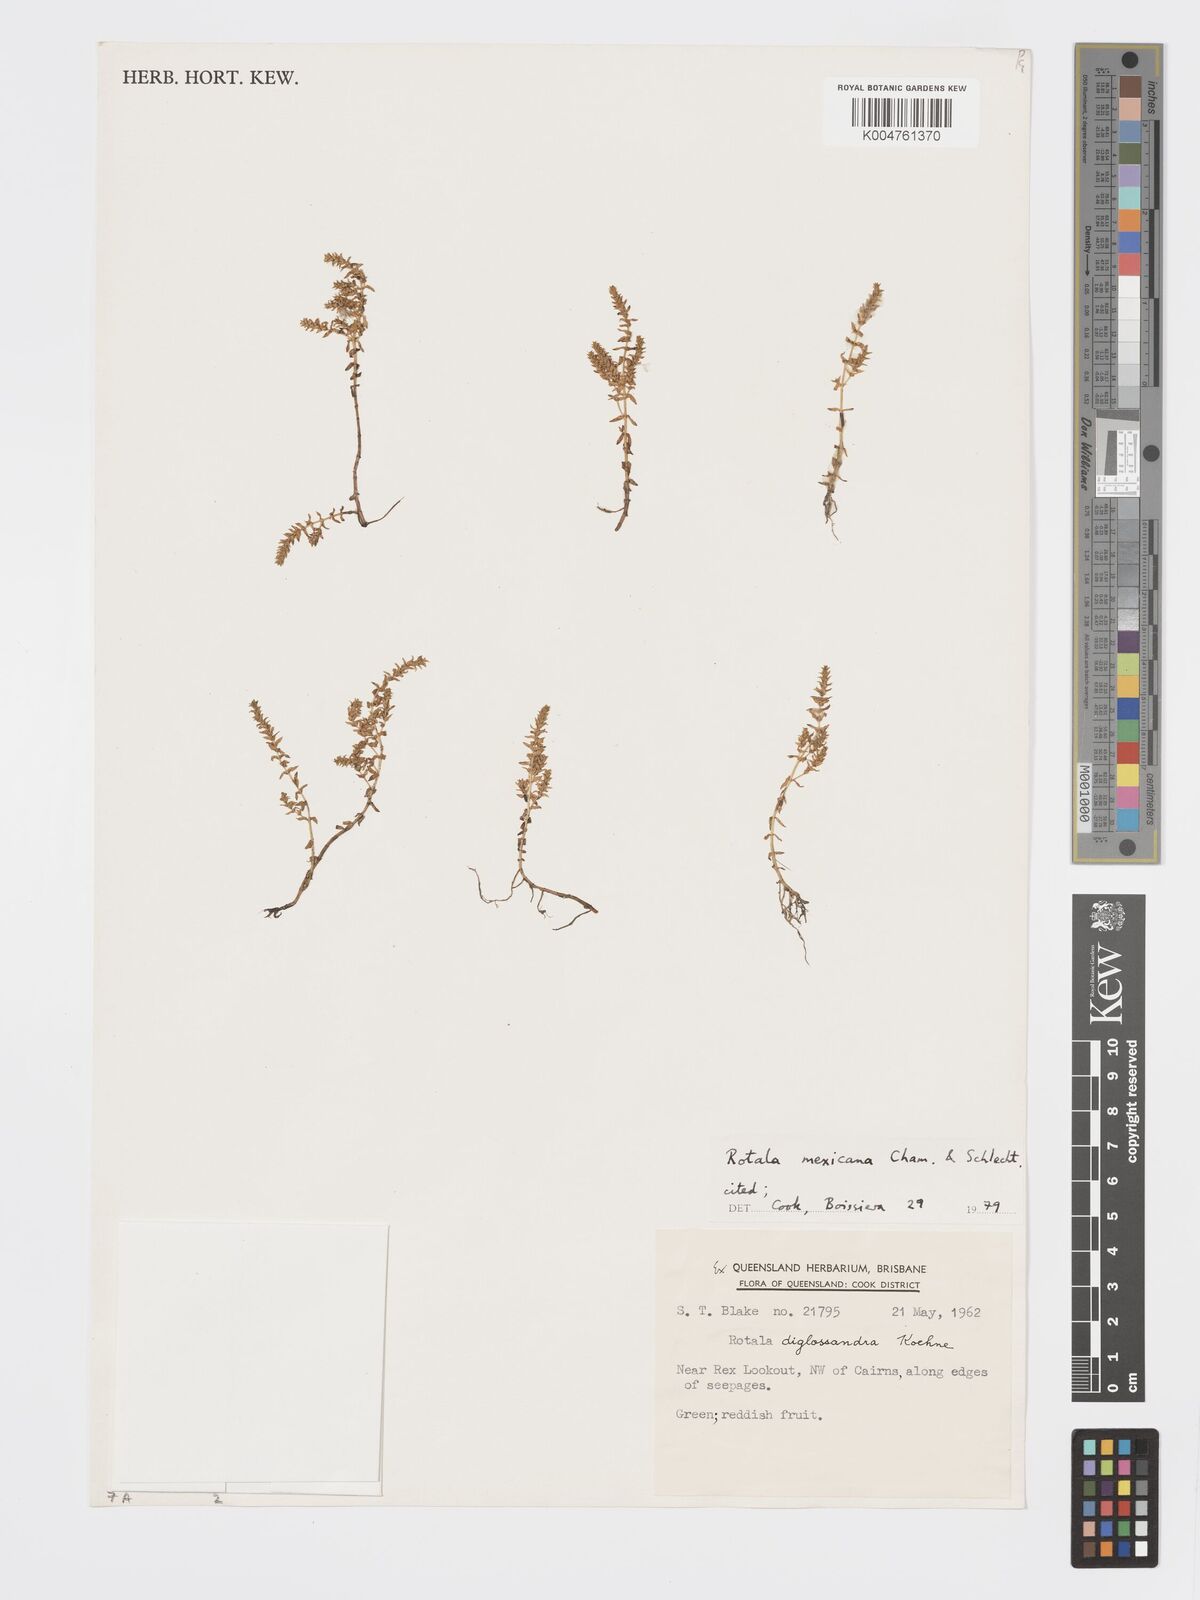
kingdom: Plantae
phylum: Tracheophyta
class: Magnoliopsida
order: Myrtales
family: Lythraceae
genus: Rotala
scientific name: Rotala mexicana
